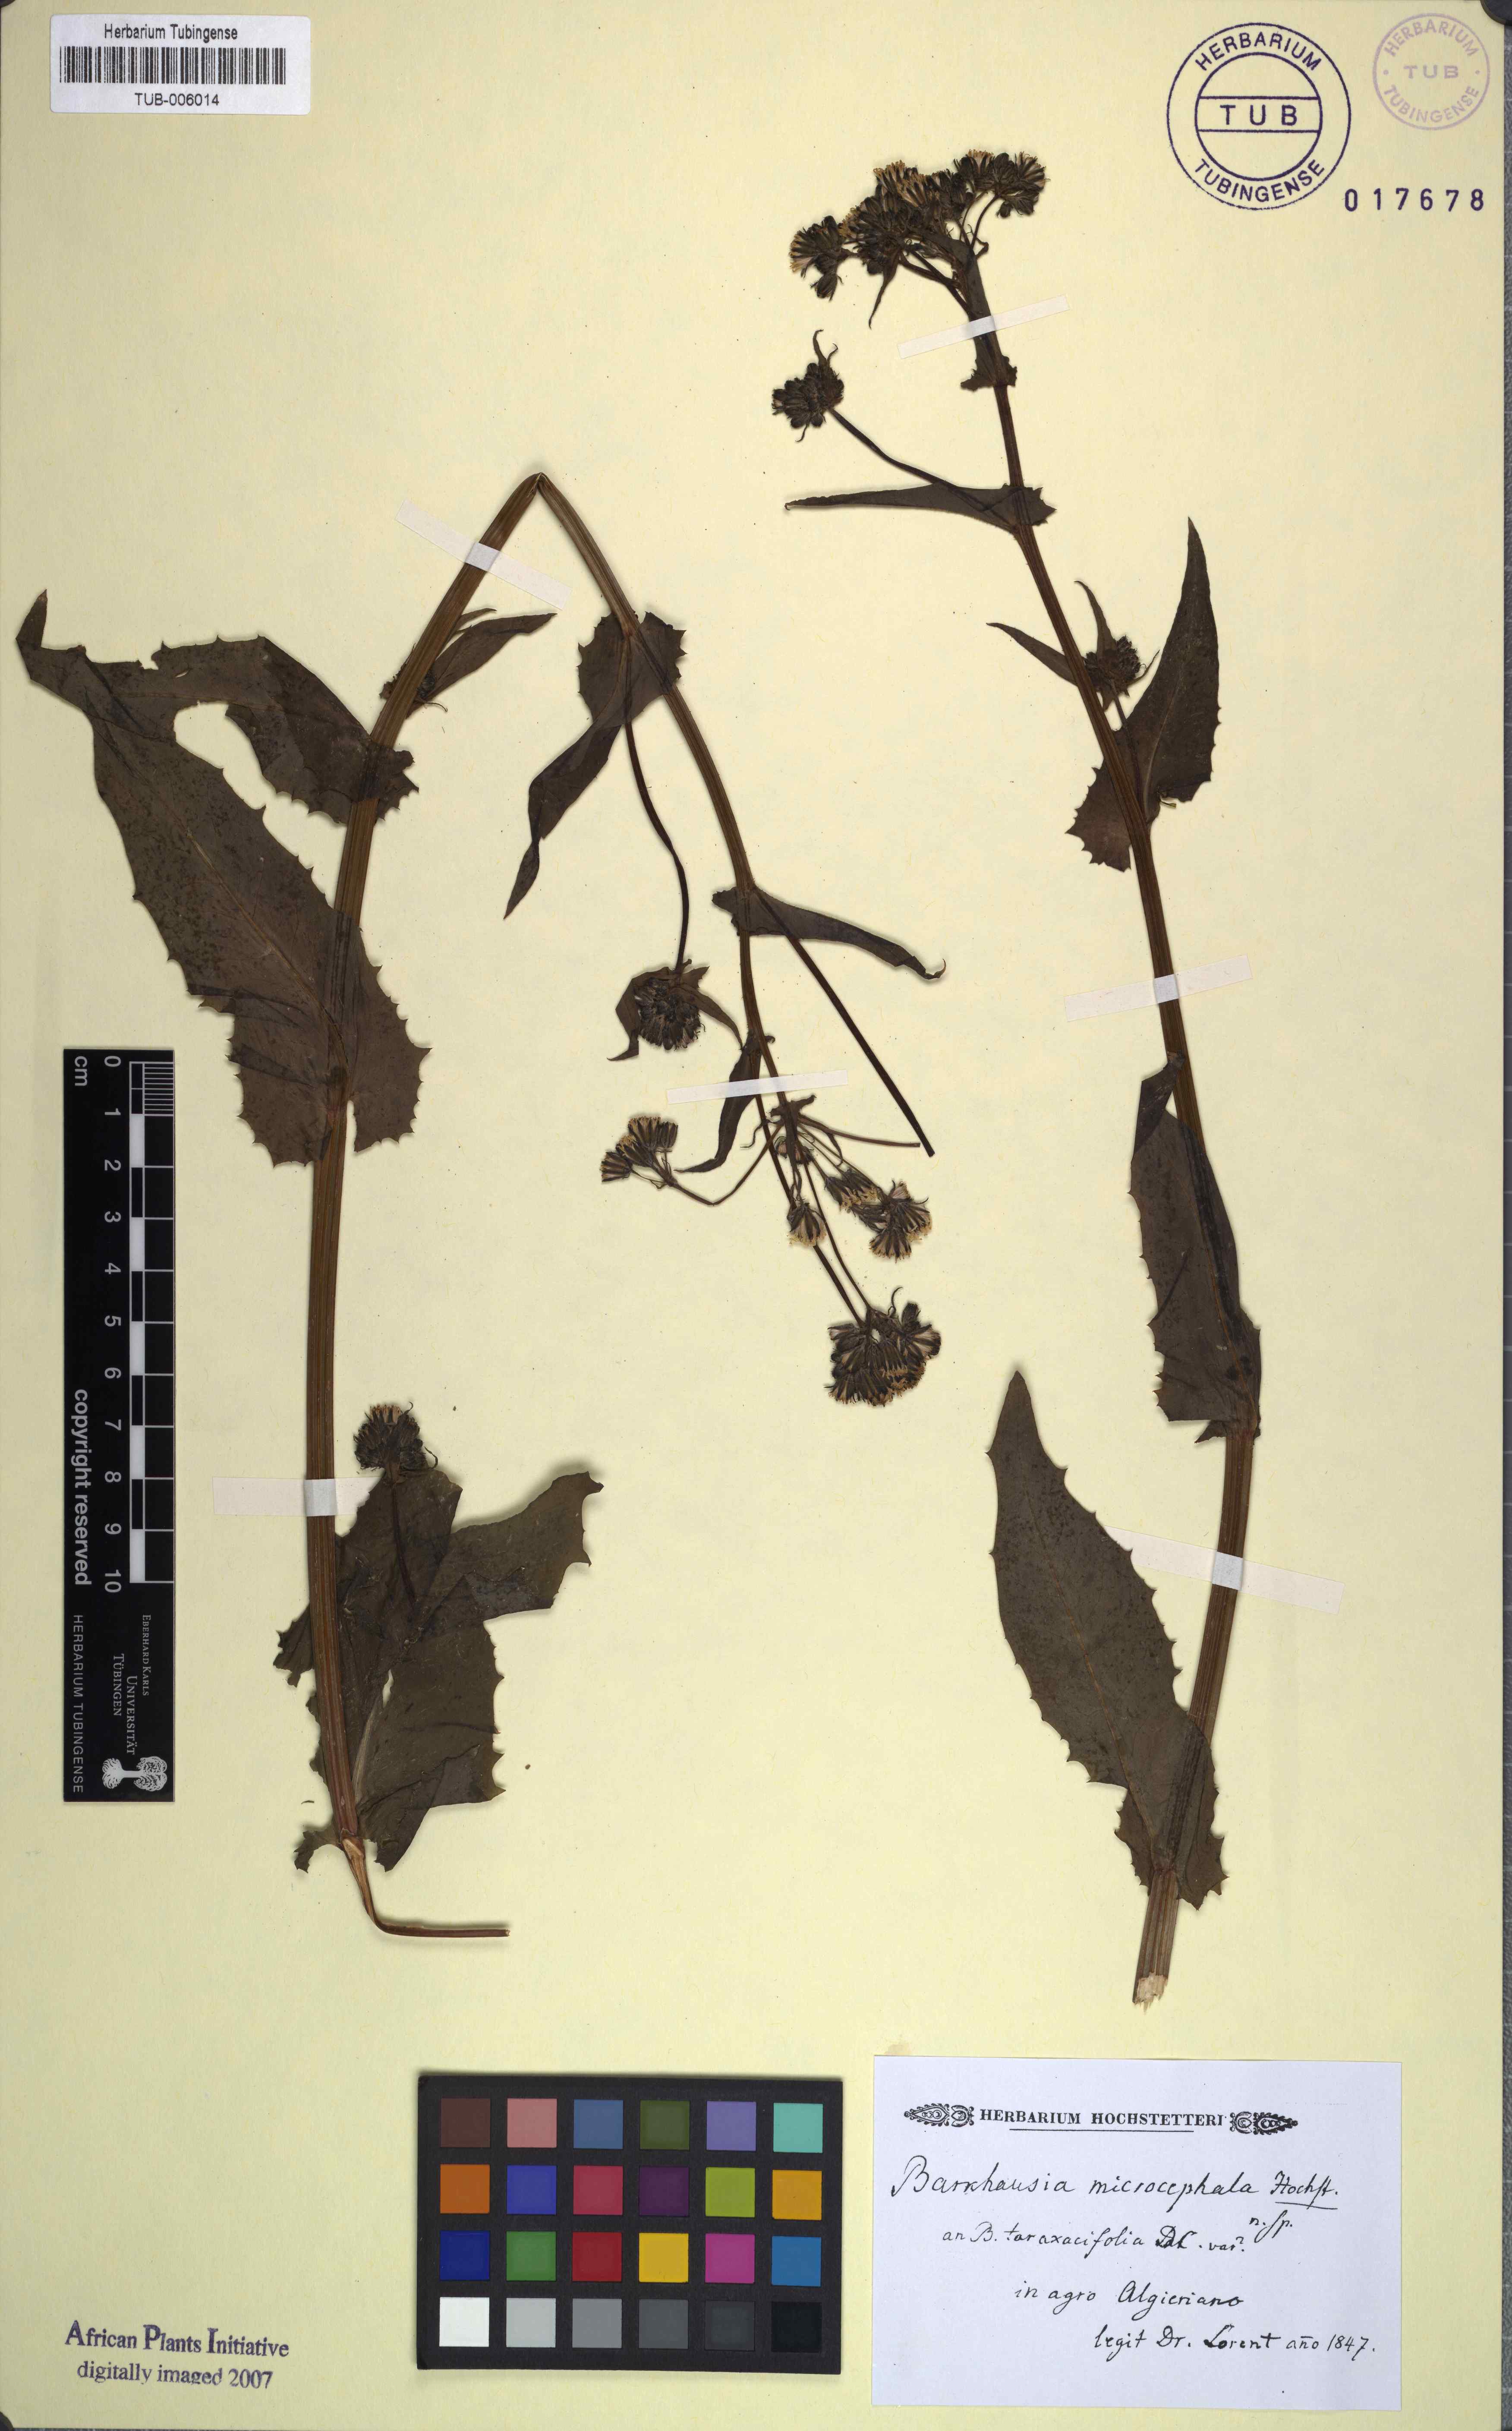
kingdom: Plantae
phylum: Tracheophyta
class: Magnoliopsida
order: Asterales
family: Asteraceae
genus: Crepis
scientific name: Crepis vesicaria
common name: Beaked hawksbeard
